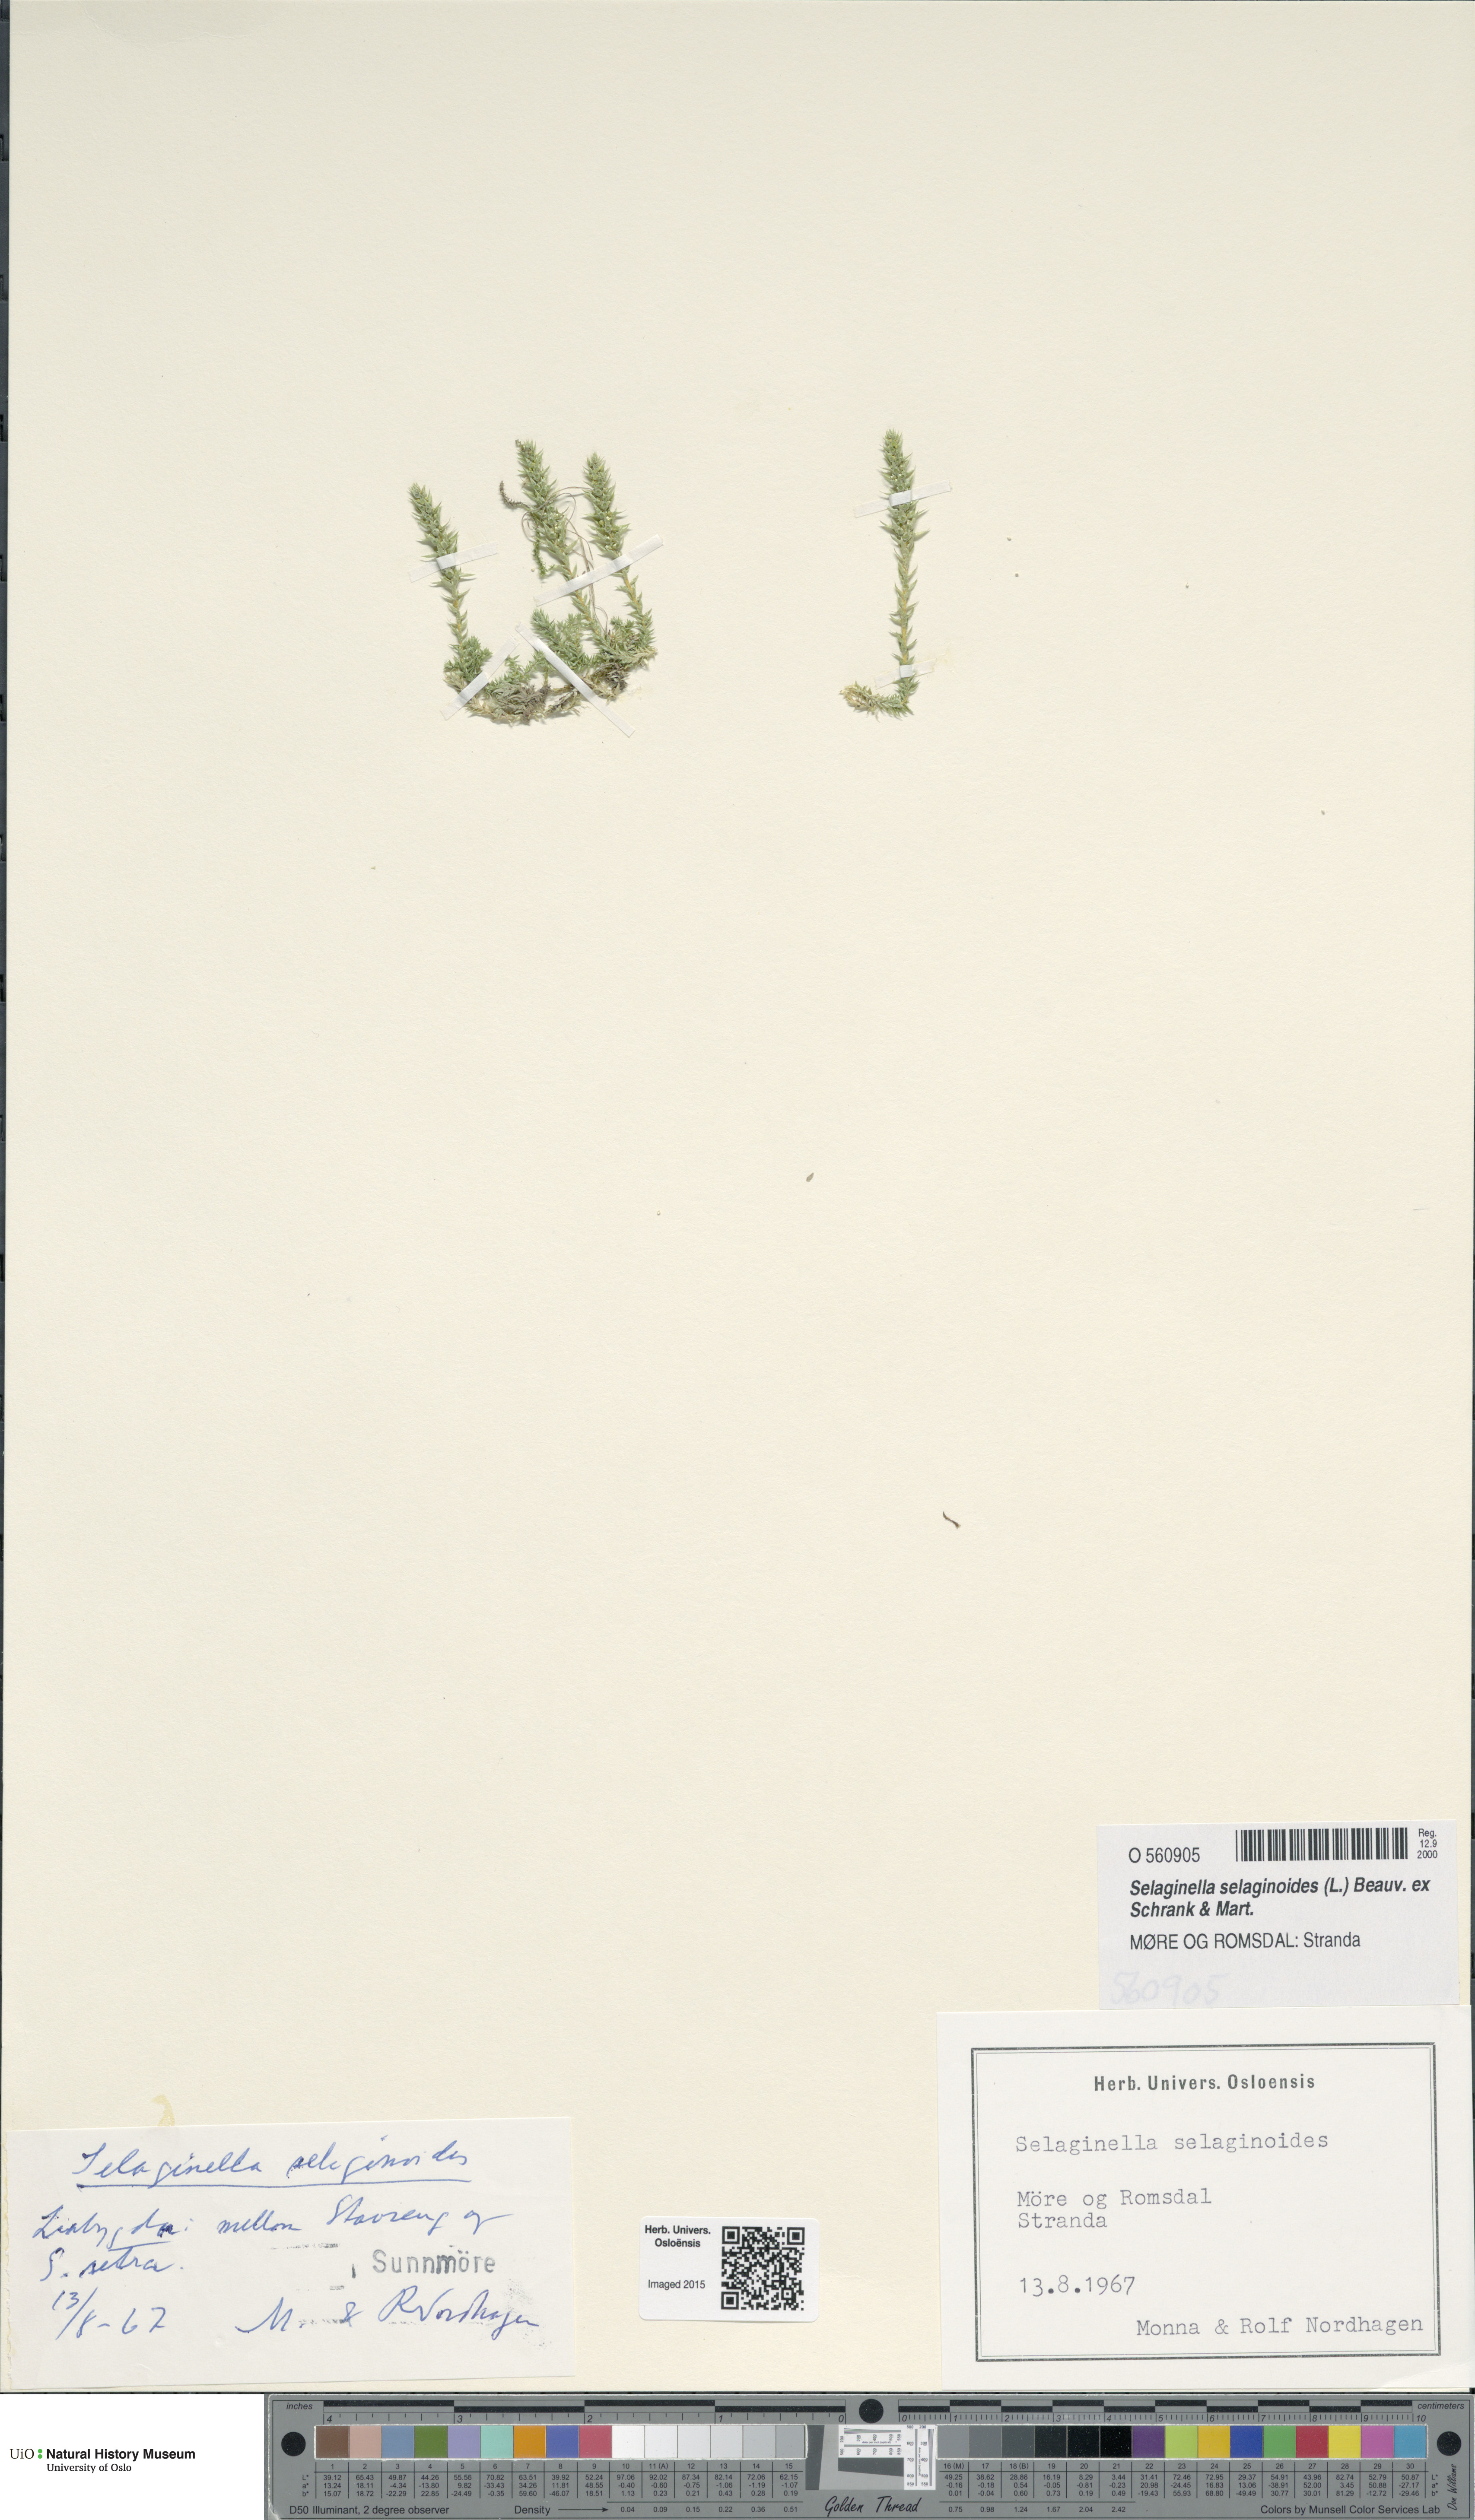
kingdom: Plantae
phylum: Tracheophyta
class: Lycopodiopsida
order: Selaginellales
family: Selaginellaceae
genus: Selaginella
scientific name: Selaginella selaginoides
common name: Prickly mountain-moss
